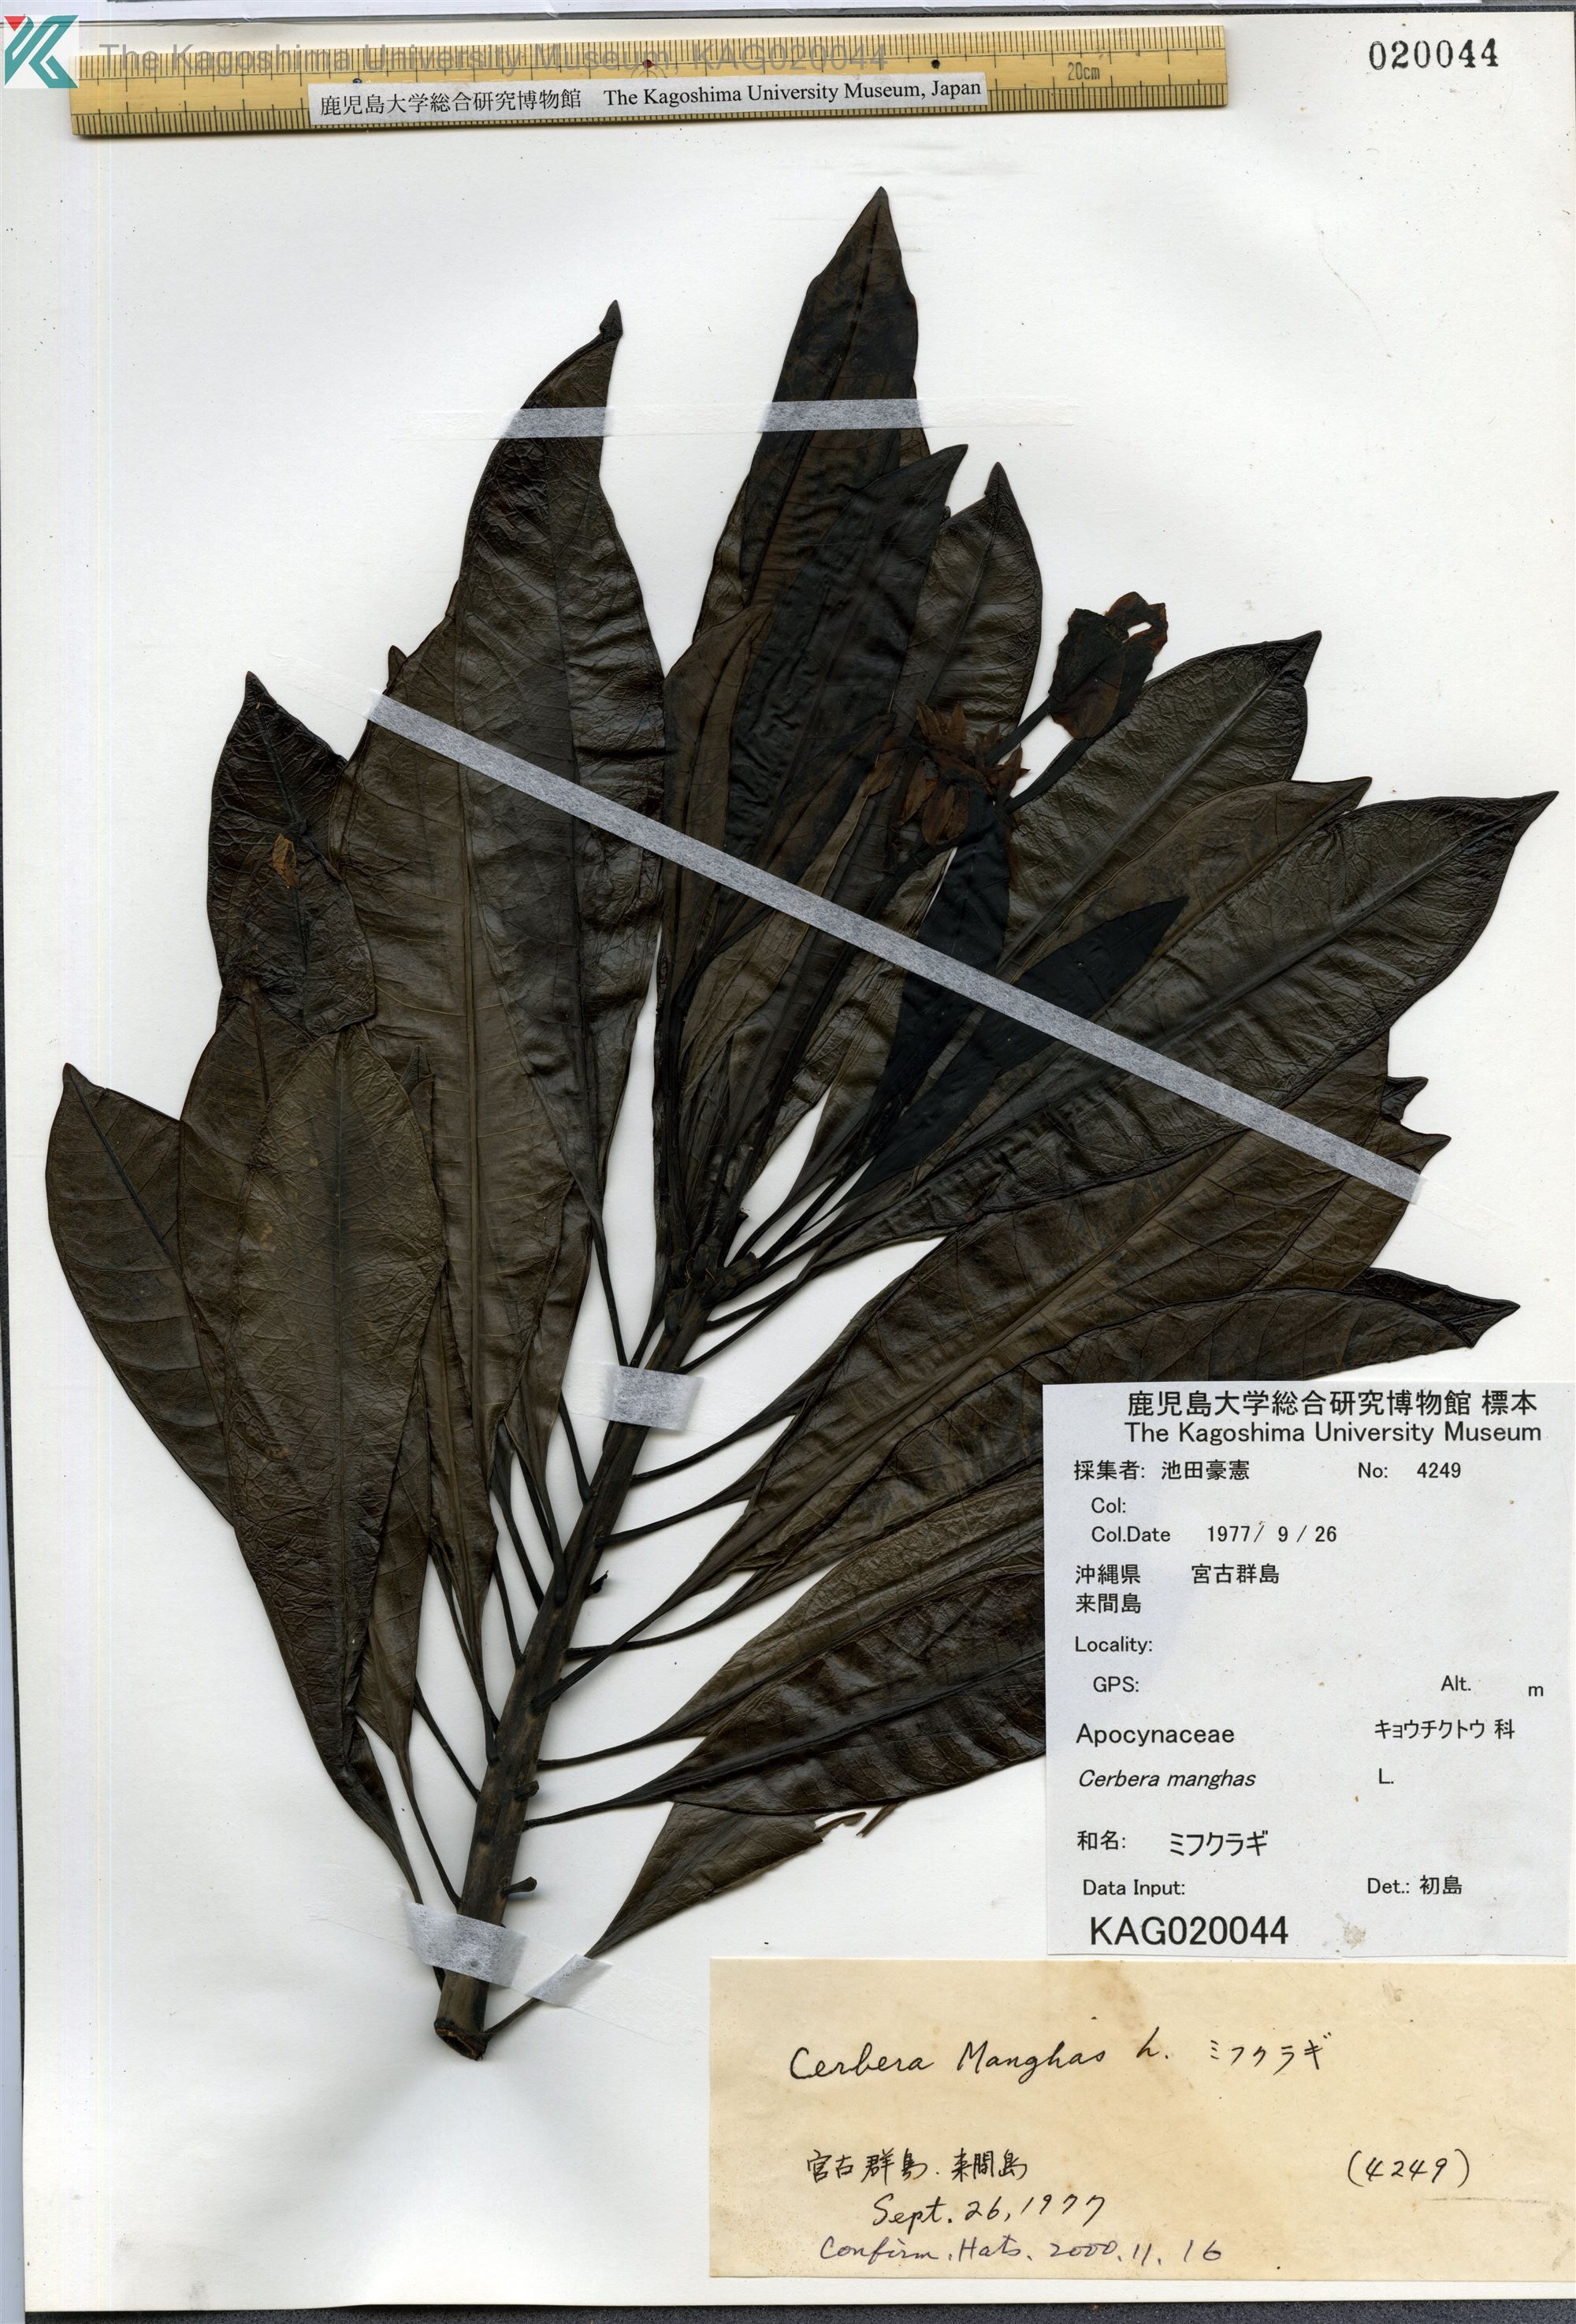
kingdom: Plantae
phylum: Tracheophyta
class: Magnoliopsida
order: Gentianales
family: Apocynaceae
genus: Cerbera
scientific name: Cerbera manghas
